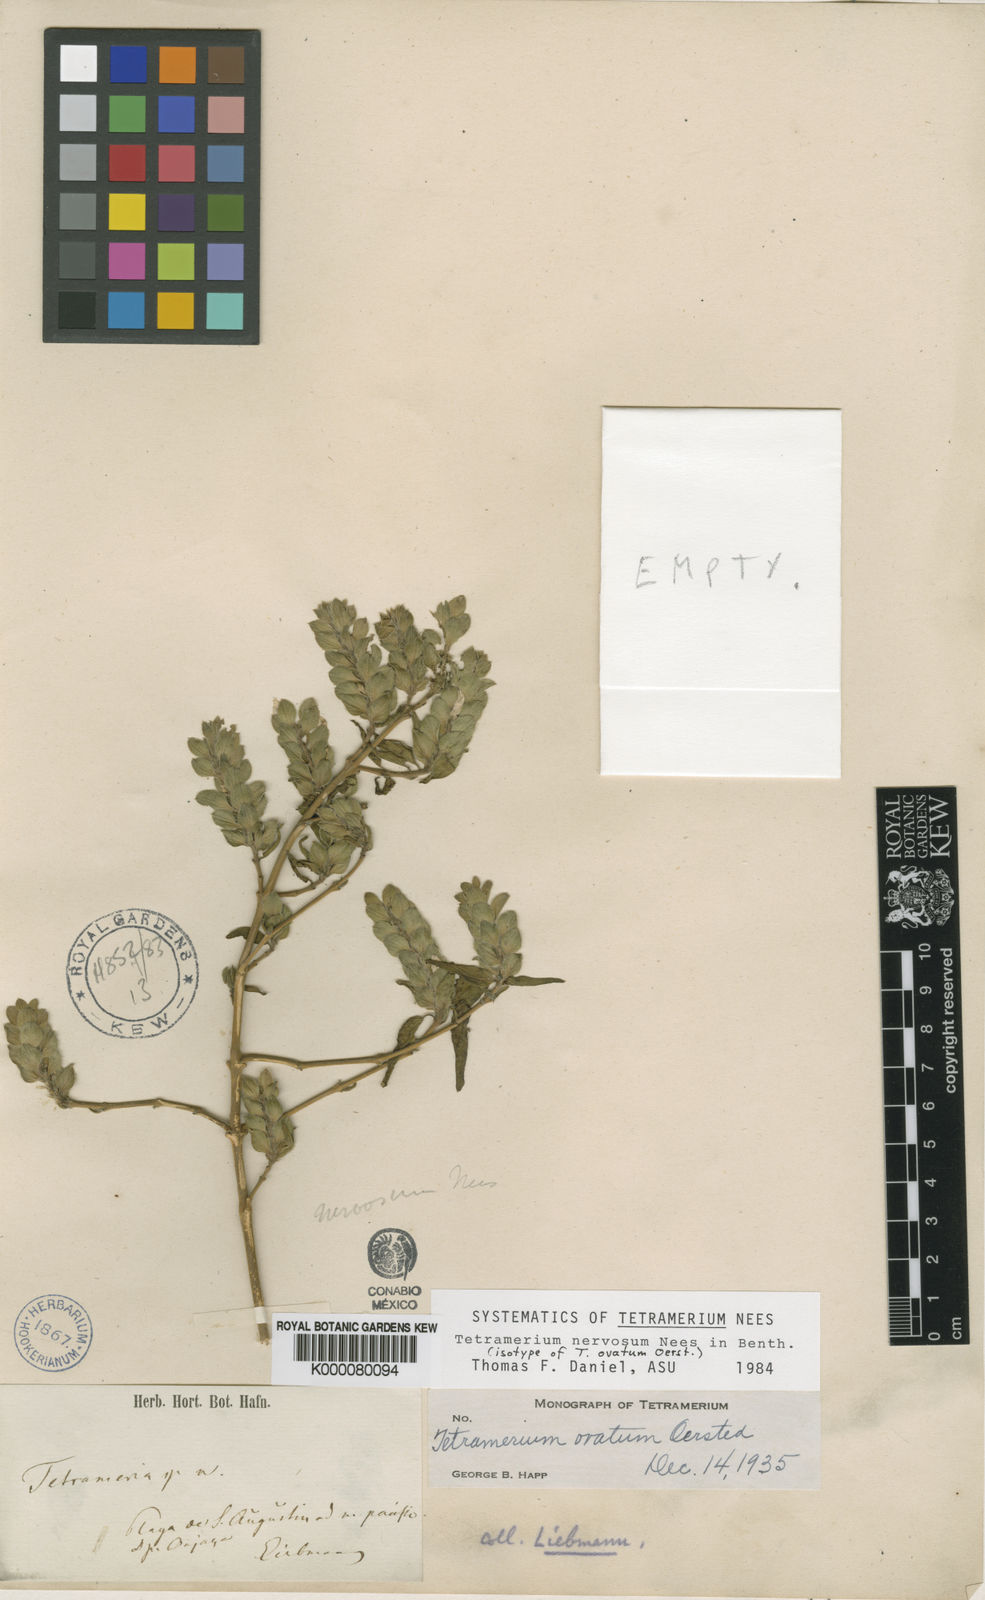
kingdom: Plantae
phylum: Tracheophyta
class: Magnoliopsida
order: Lamiales
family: Acanthaceae
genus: Tetramerium
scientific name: Tetramerium nervosum
